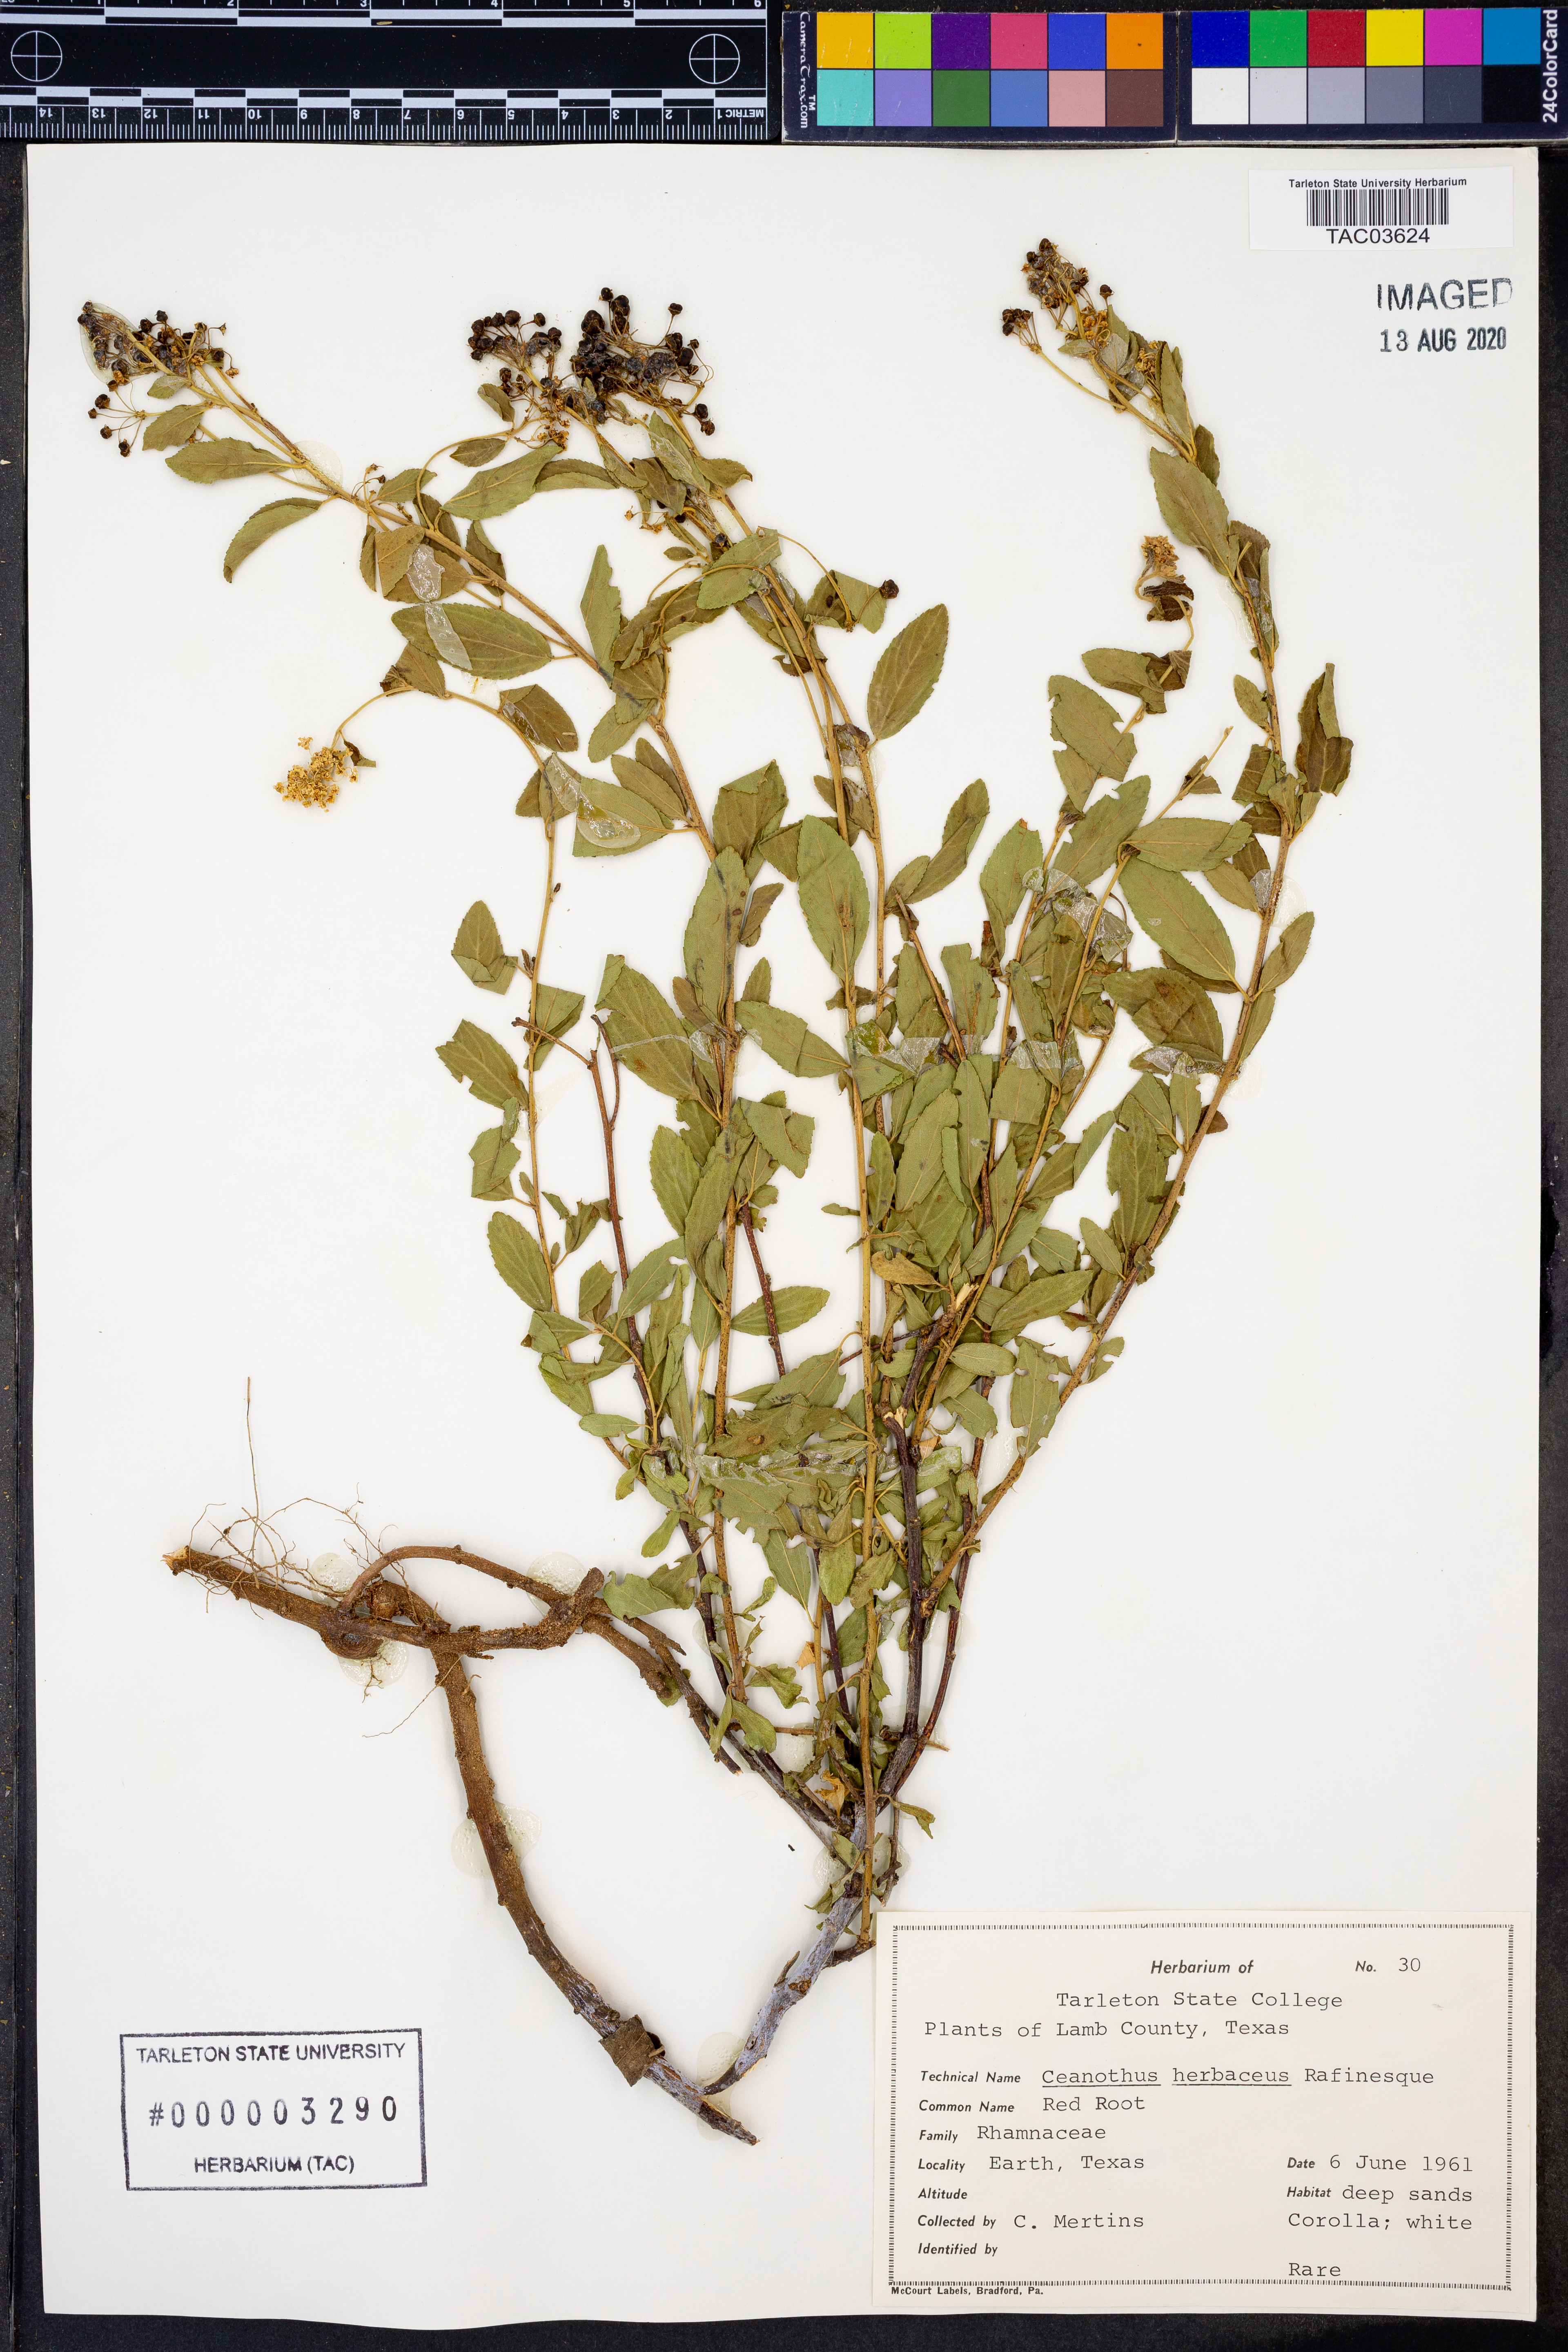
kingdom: Plantae
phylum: Tracheophyta
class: Magnoliopsida
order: Rosales
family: Rhamnaceae
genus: Ceanothus
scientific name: Ceanothus herbaceus
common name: Inland ceanothus
